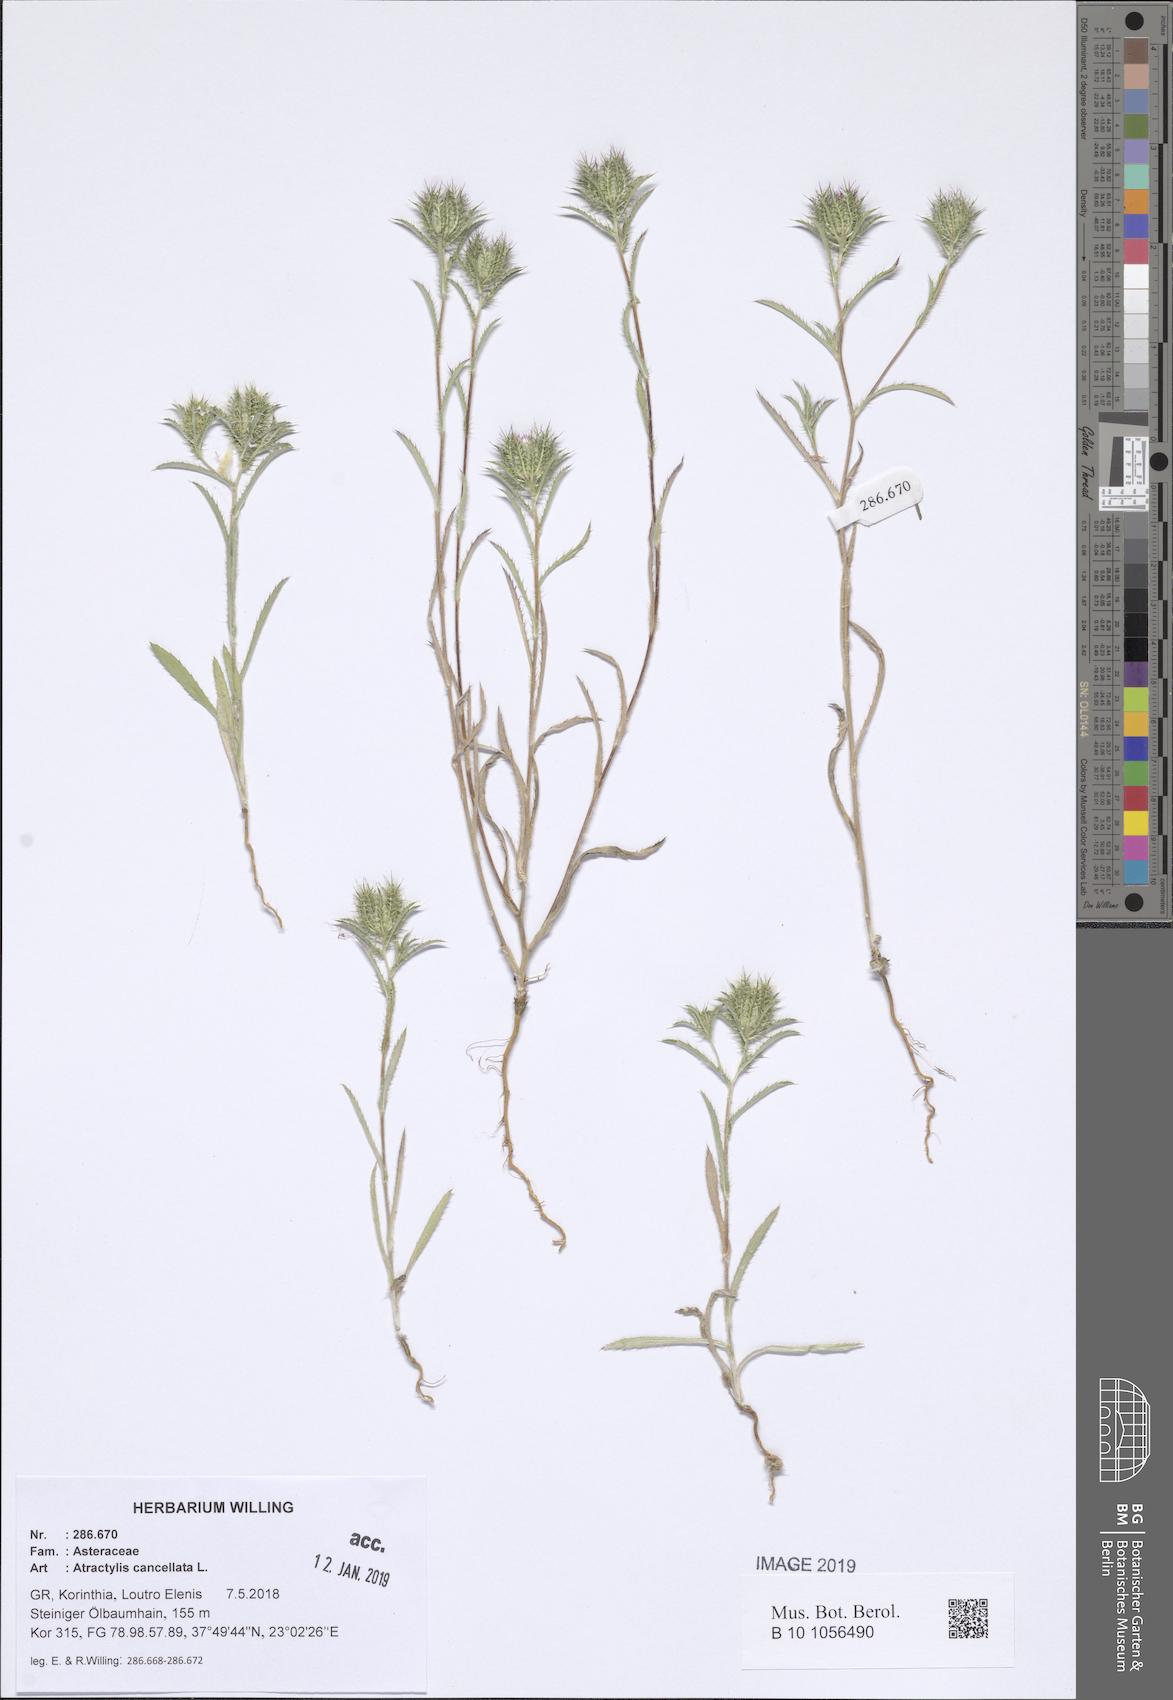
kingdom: Plantae
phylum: Tracheophyta
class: Magnoliopsida
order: Asterales
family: Asteraceae
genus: Atractylis
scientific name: Atractylis cancellata
